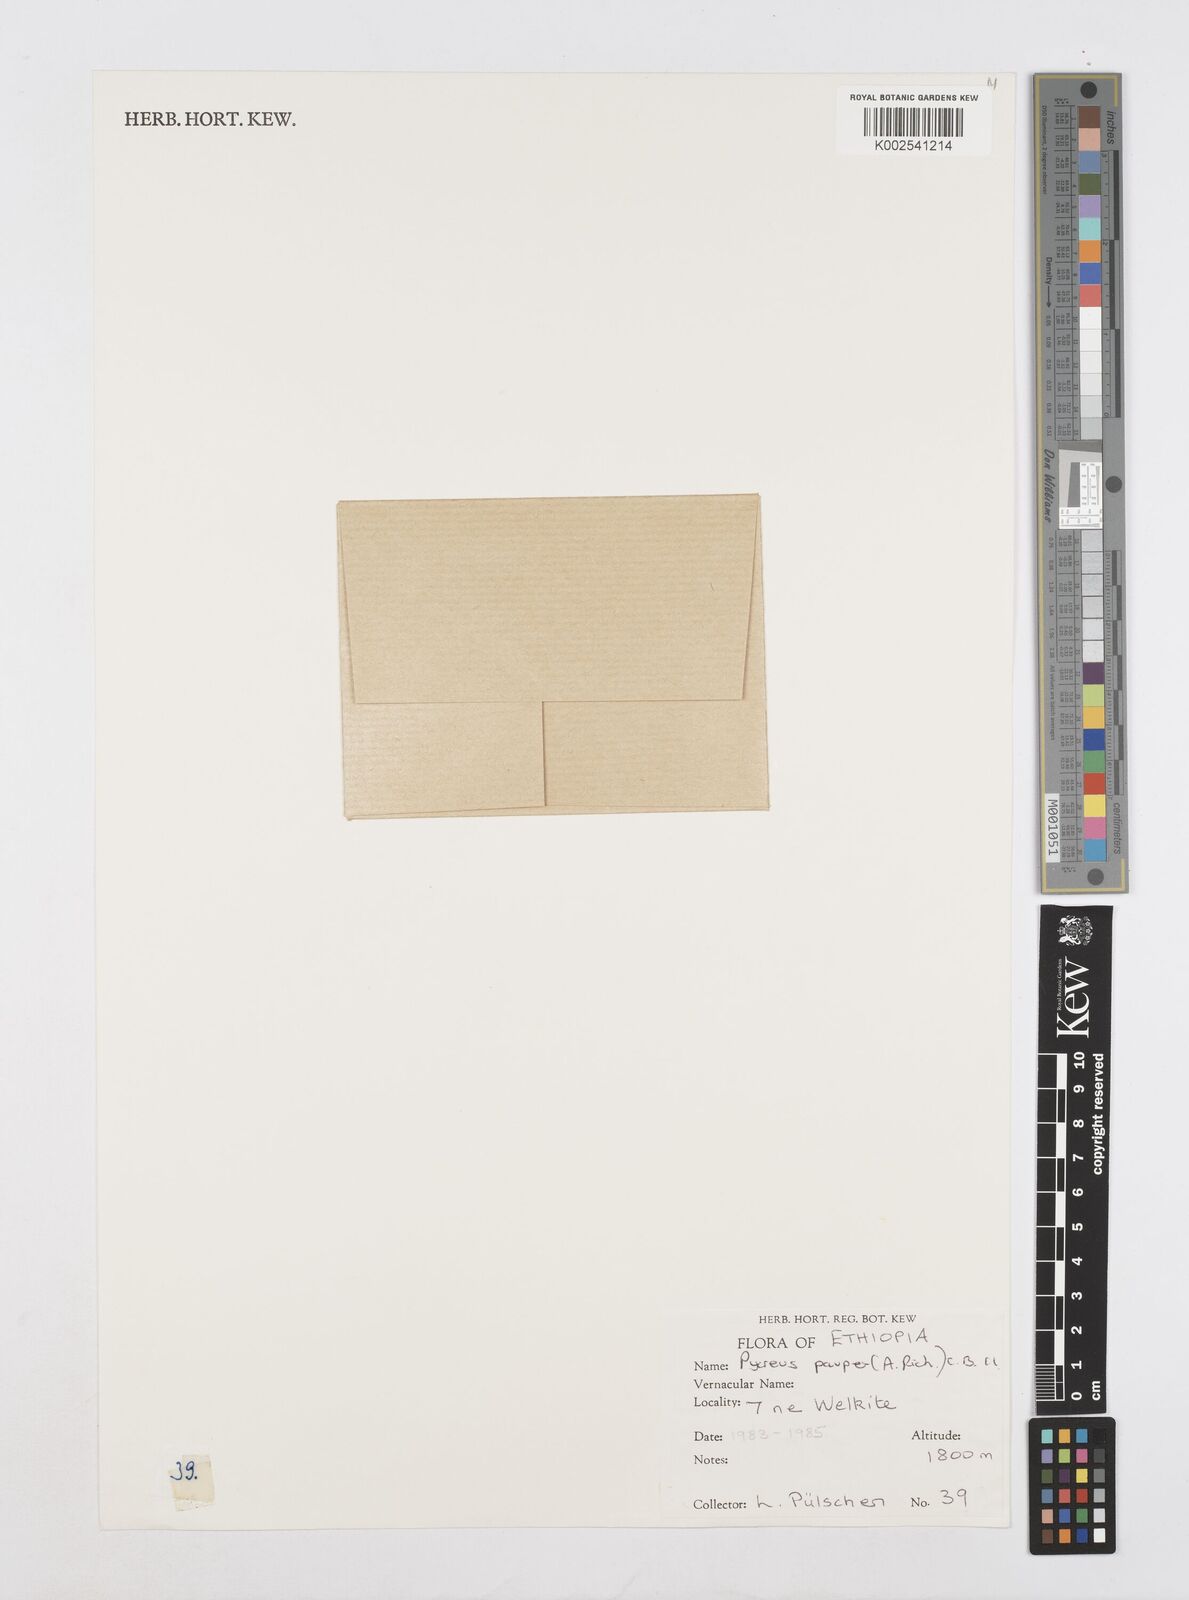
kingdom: Plantae
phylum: Tracheophyta
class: Liliopsida
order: Poales
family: Cyperaceae
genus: Cyperus
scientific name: Cyperus pauper
